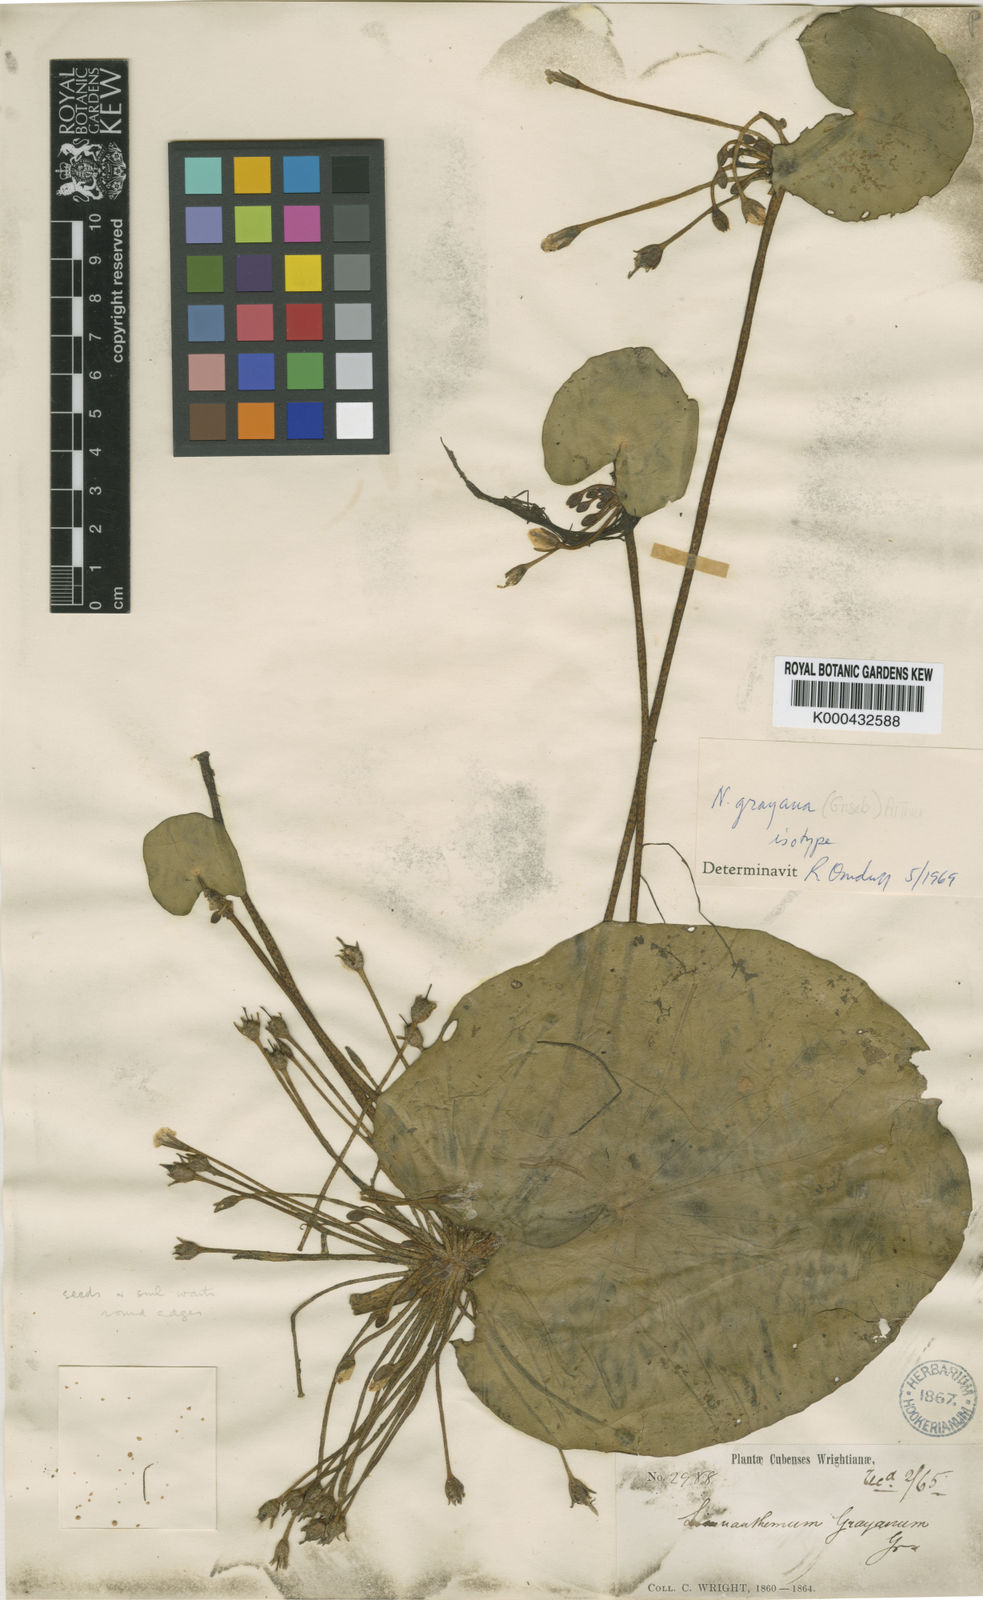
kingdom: Plantae
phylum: Tracheophyta
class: Magnoliopsida
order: Asterales
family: Menyanthaceae
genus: Nymphoides
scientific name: Nymphoides
